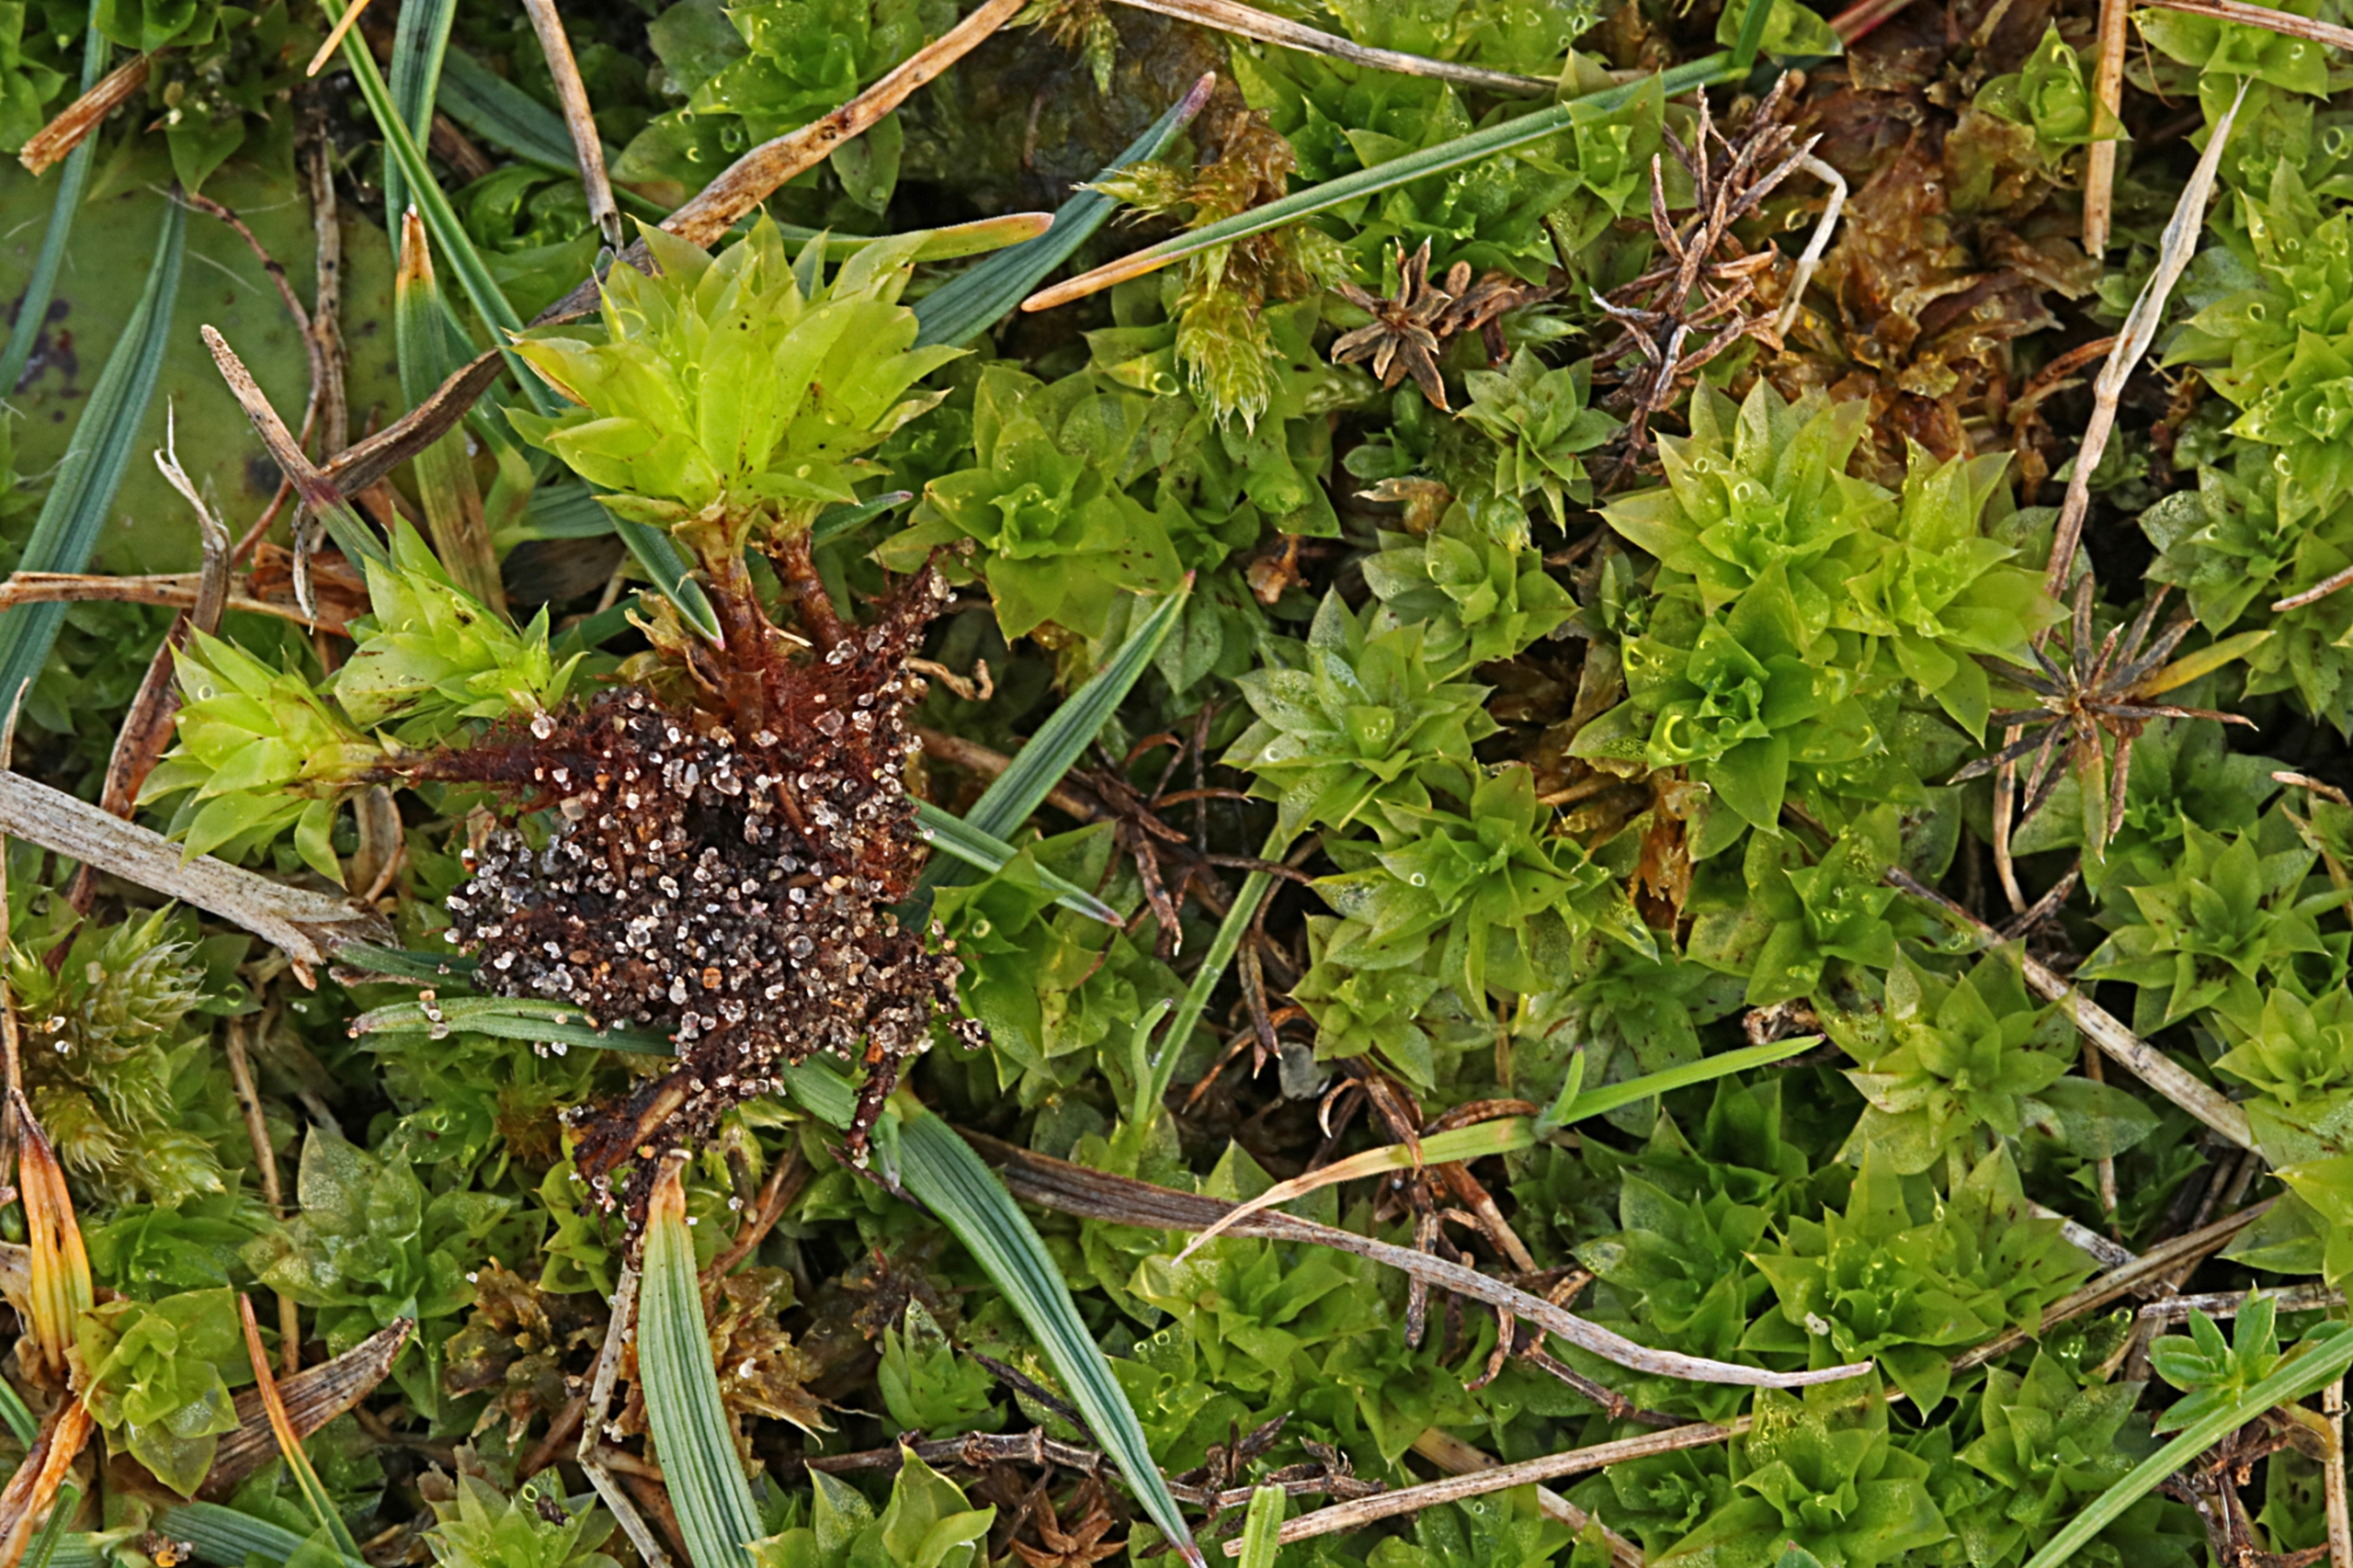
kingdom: Plantae
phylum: Bryophyta
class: Bryopsida
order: Bryales
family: Bryaceae
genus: Rhodobryum
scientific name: Rhodobryum roseum
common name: Stor rosetmos
